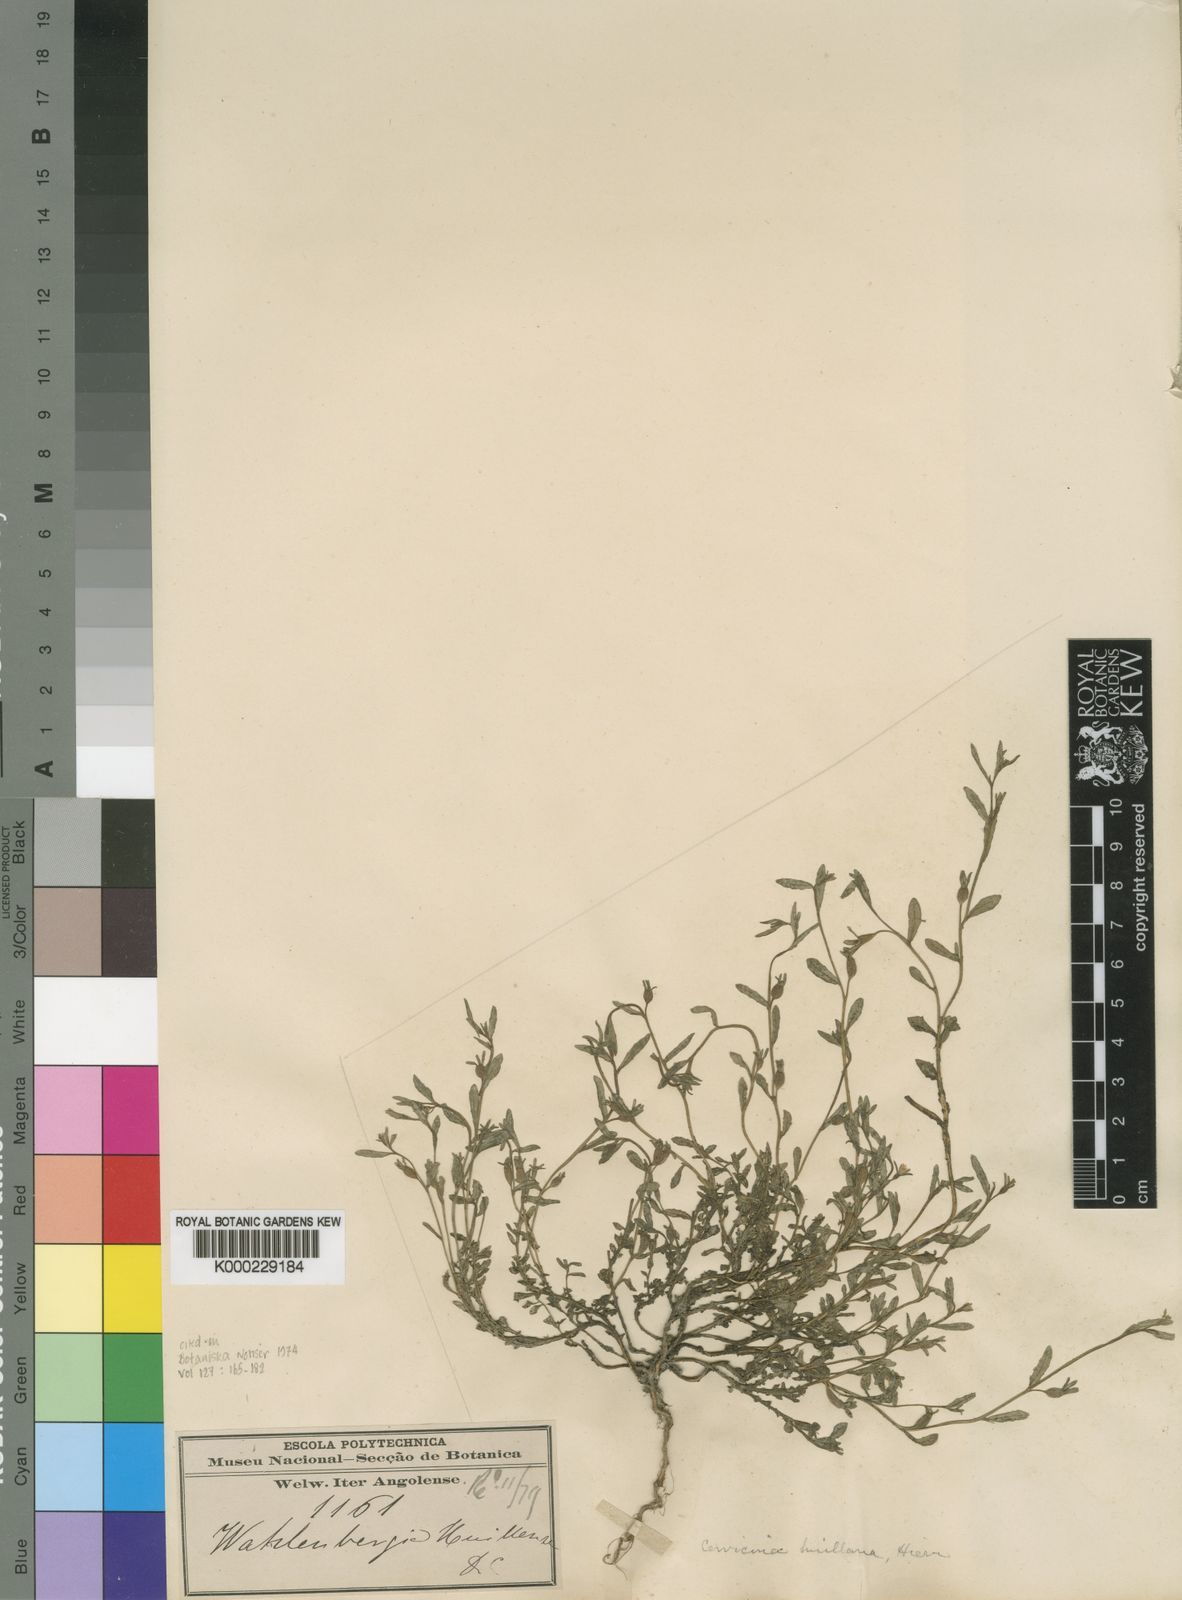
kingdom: Plantae
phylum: Tracheophyta
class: Magnoliopsida
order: Asterales
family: Campanulaceae
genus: Gunillaea
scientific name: Gunillaea emirnensis
